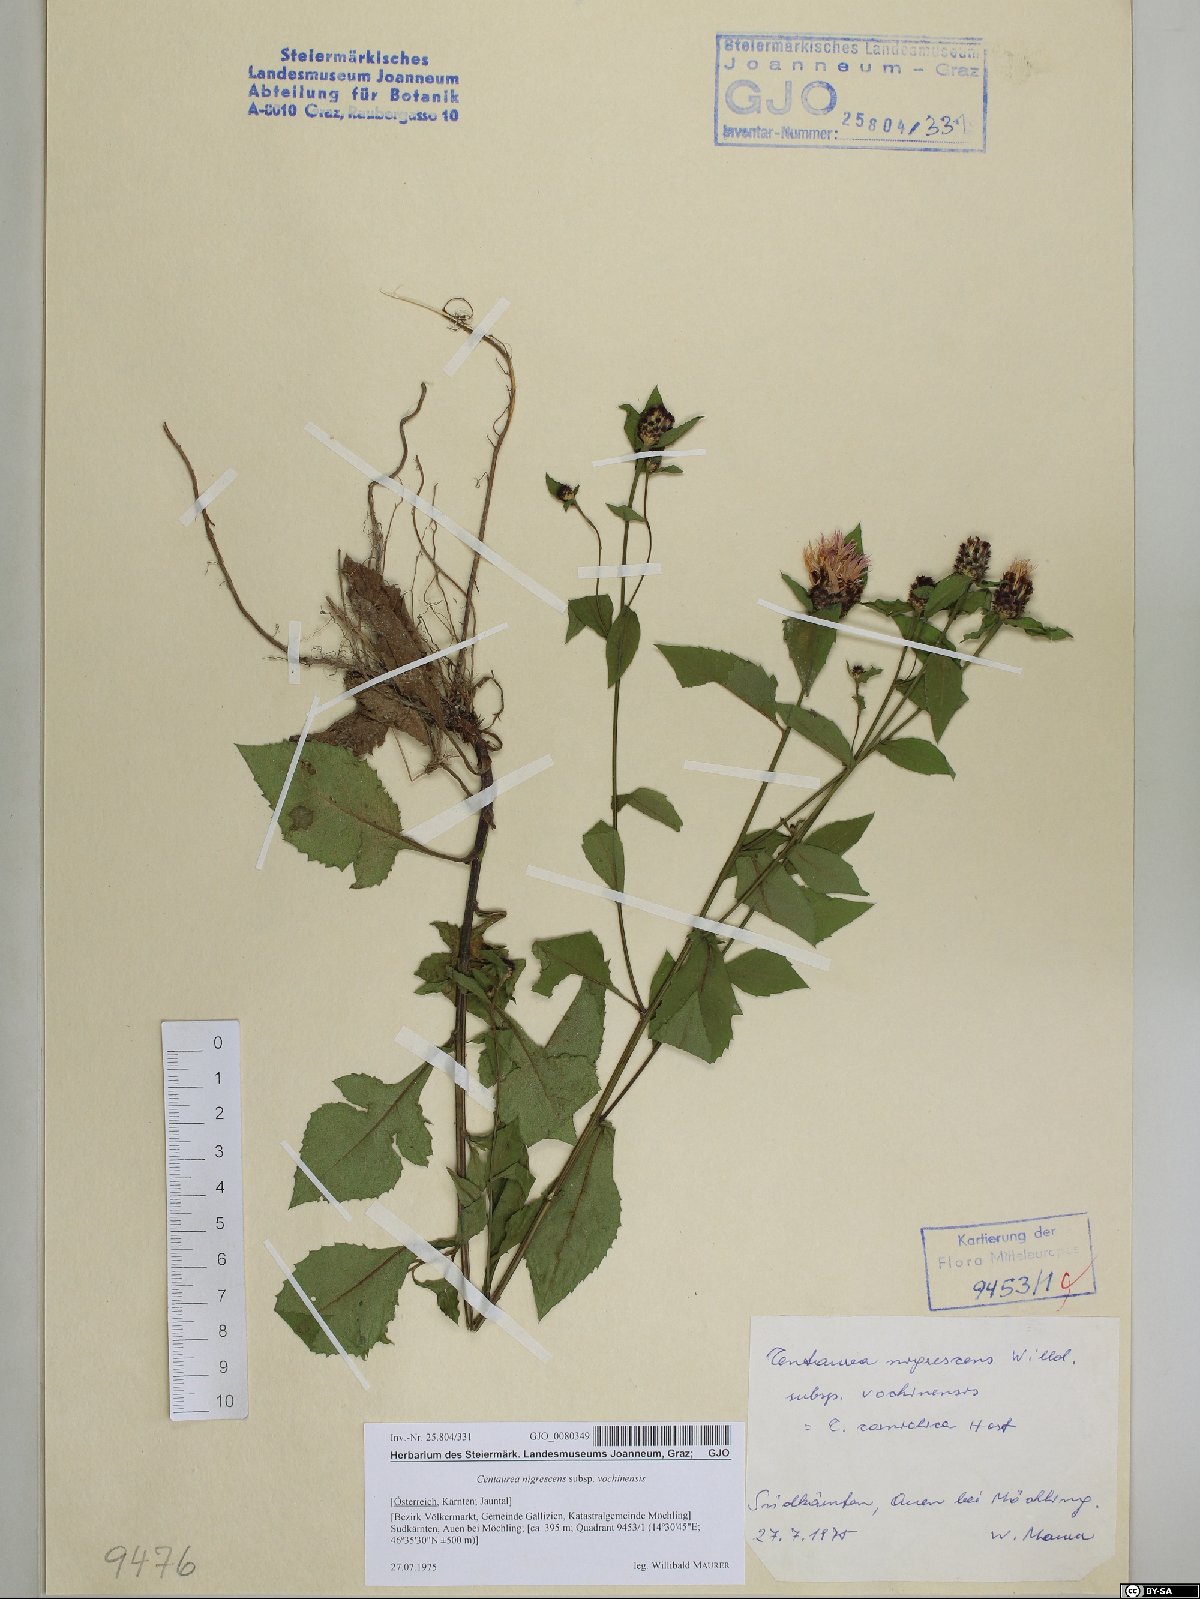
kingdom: Plantae
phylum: Tracheophyta
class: Magnoliopsida
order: Asterales
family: Asteraceae
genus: Centaurea
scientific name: Centaurea carniolica
